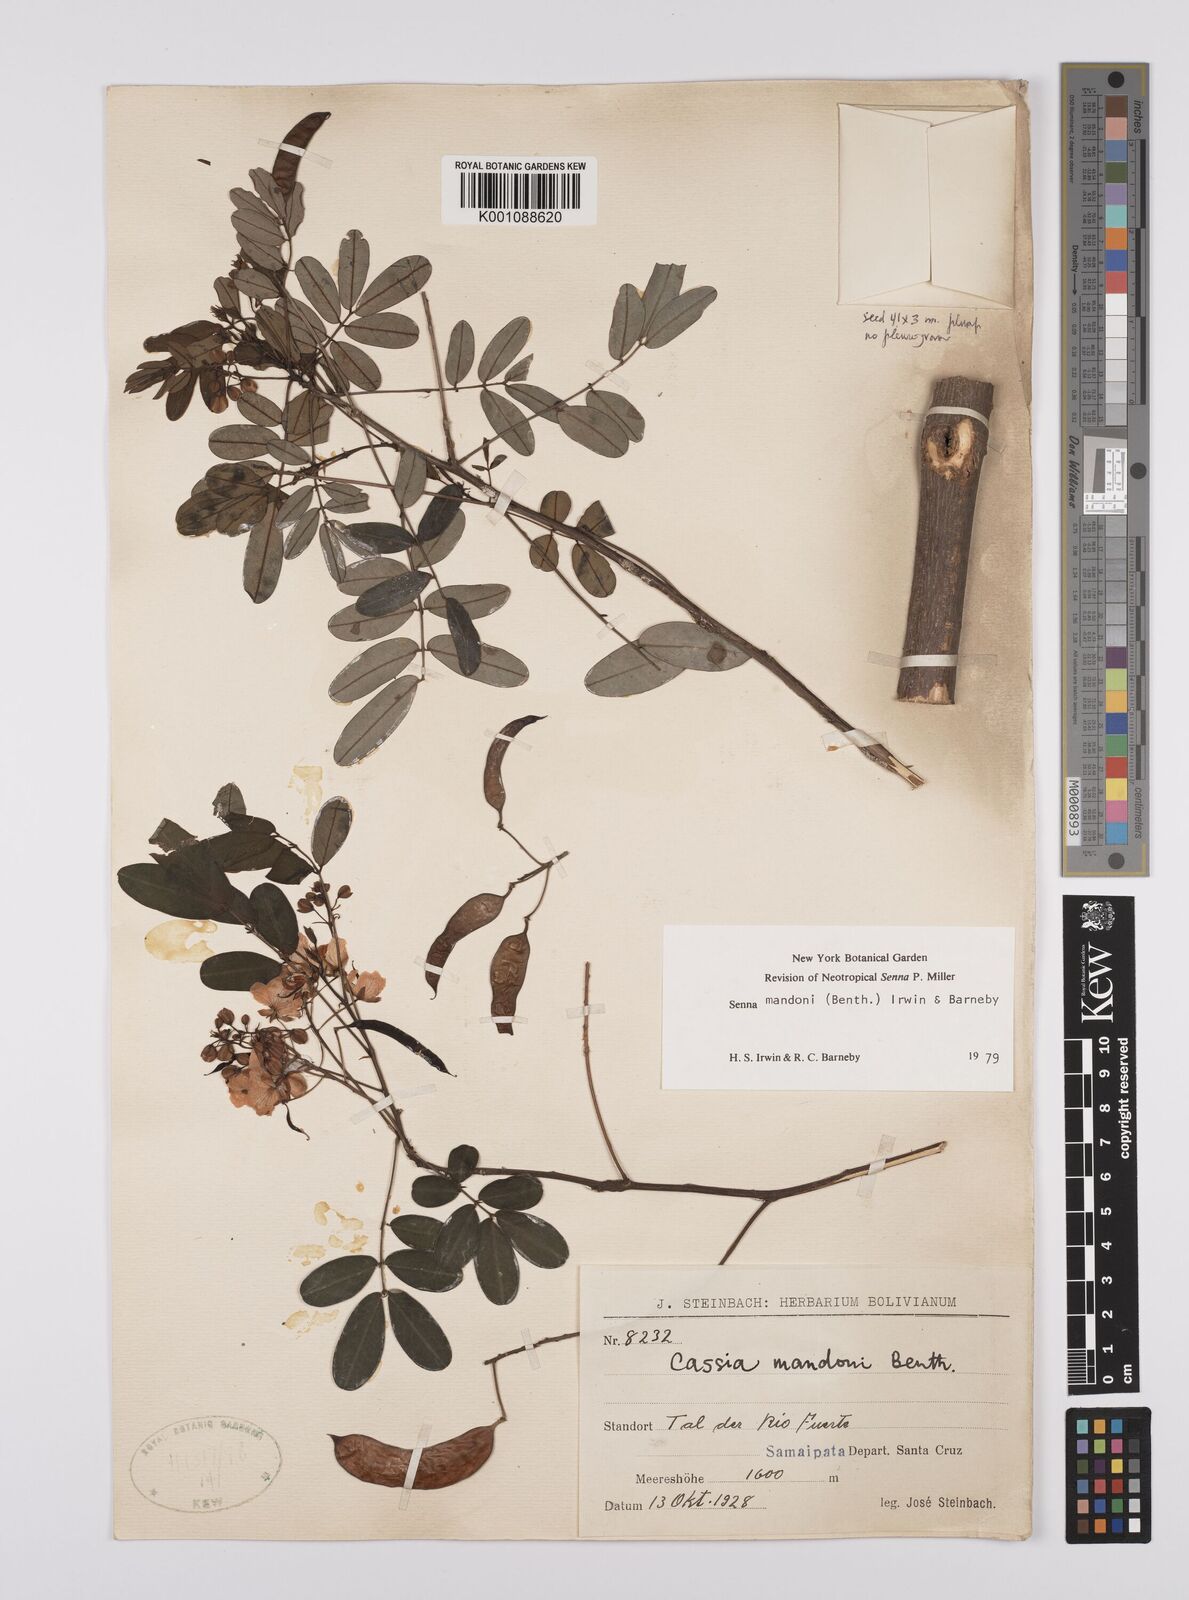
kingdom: Plantae
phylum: Tracheophyta
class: Magnoliopsida
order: Fabales
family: Fabaceae
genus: Senna
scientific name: Senna mandonii
